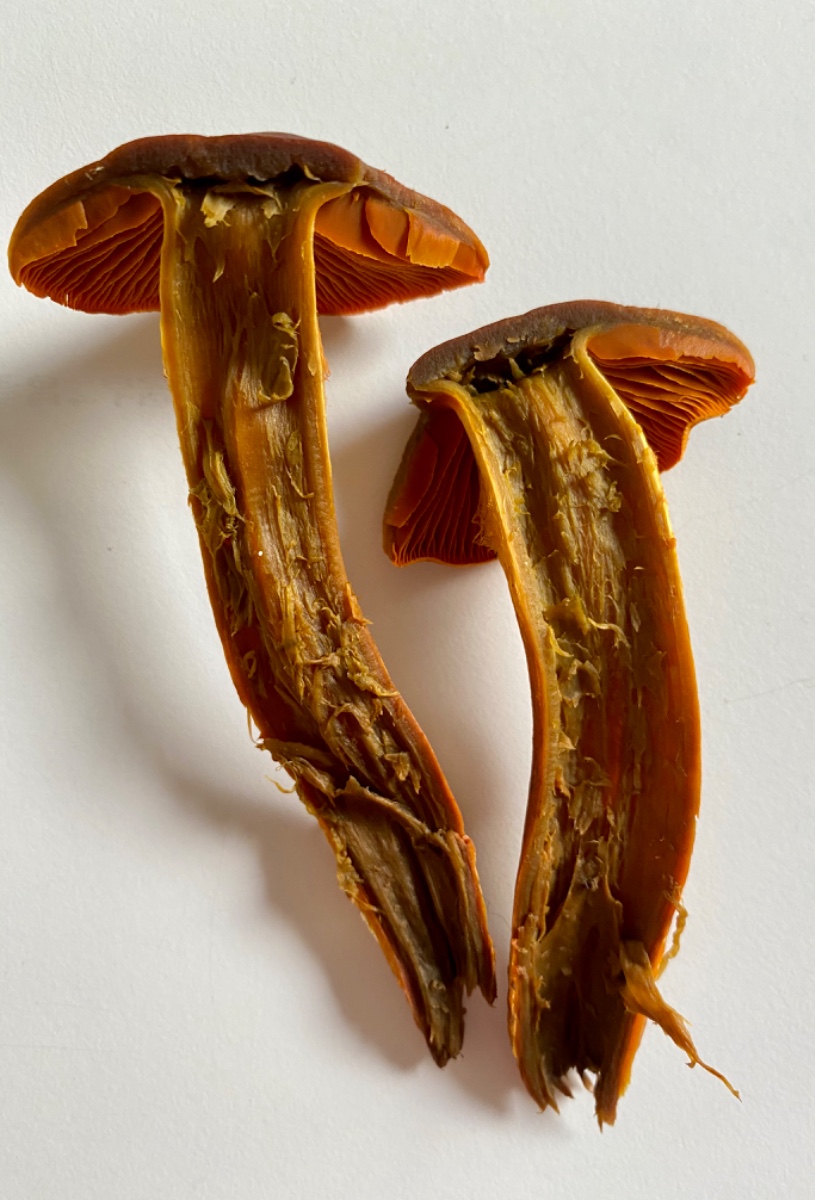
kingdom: Fungi
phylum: Basidiomycota
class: Agaricomycetes
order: Agaricales
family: Cortinariaceae
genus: Cortinarius
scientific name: Cortinarius malicorius
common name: grønkødet slørhat
